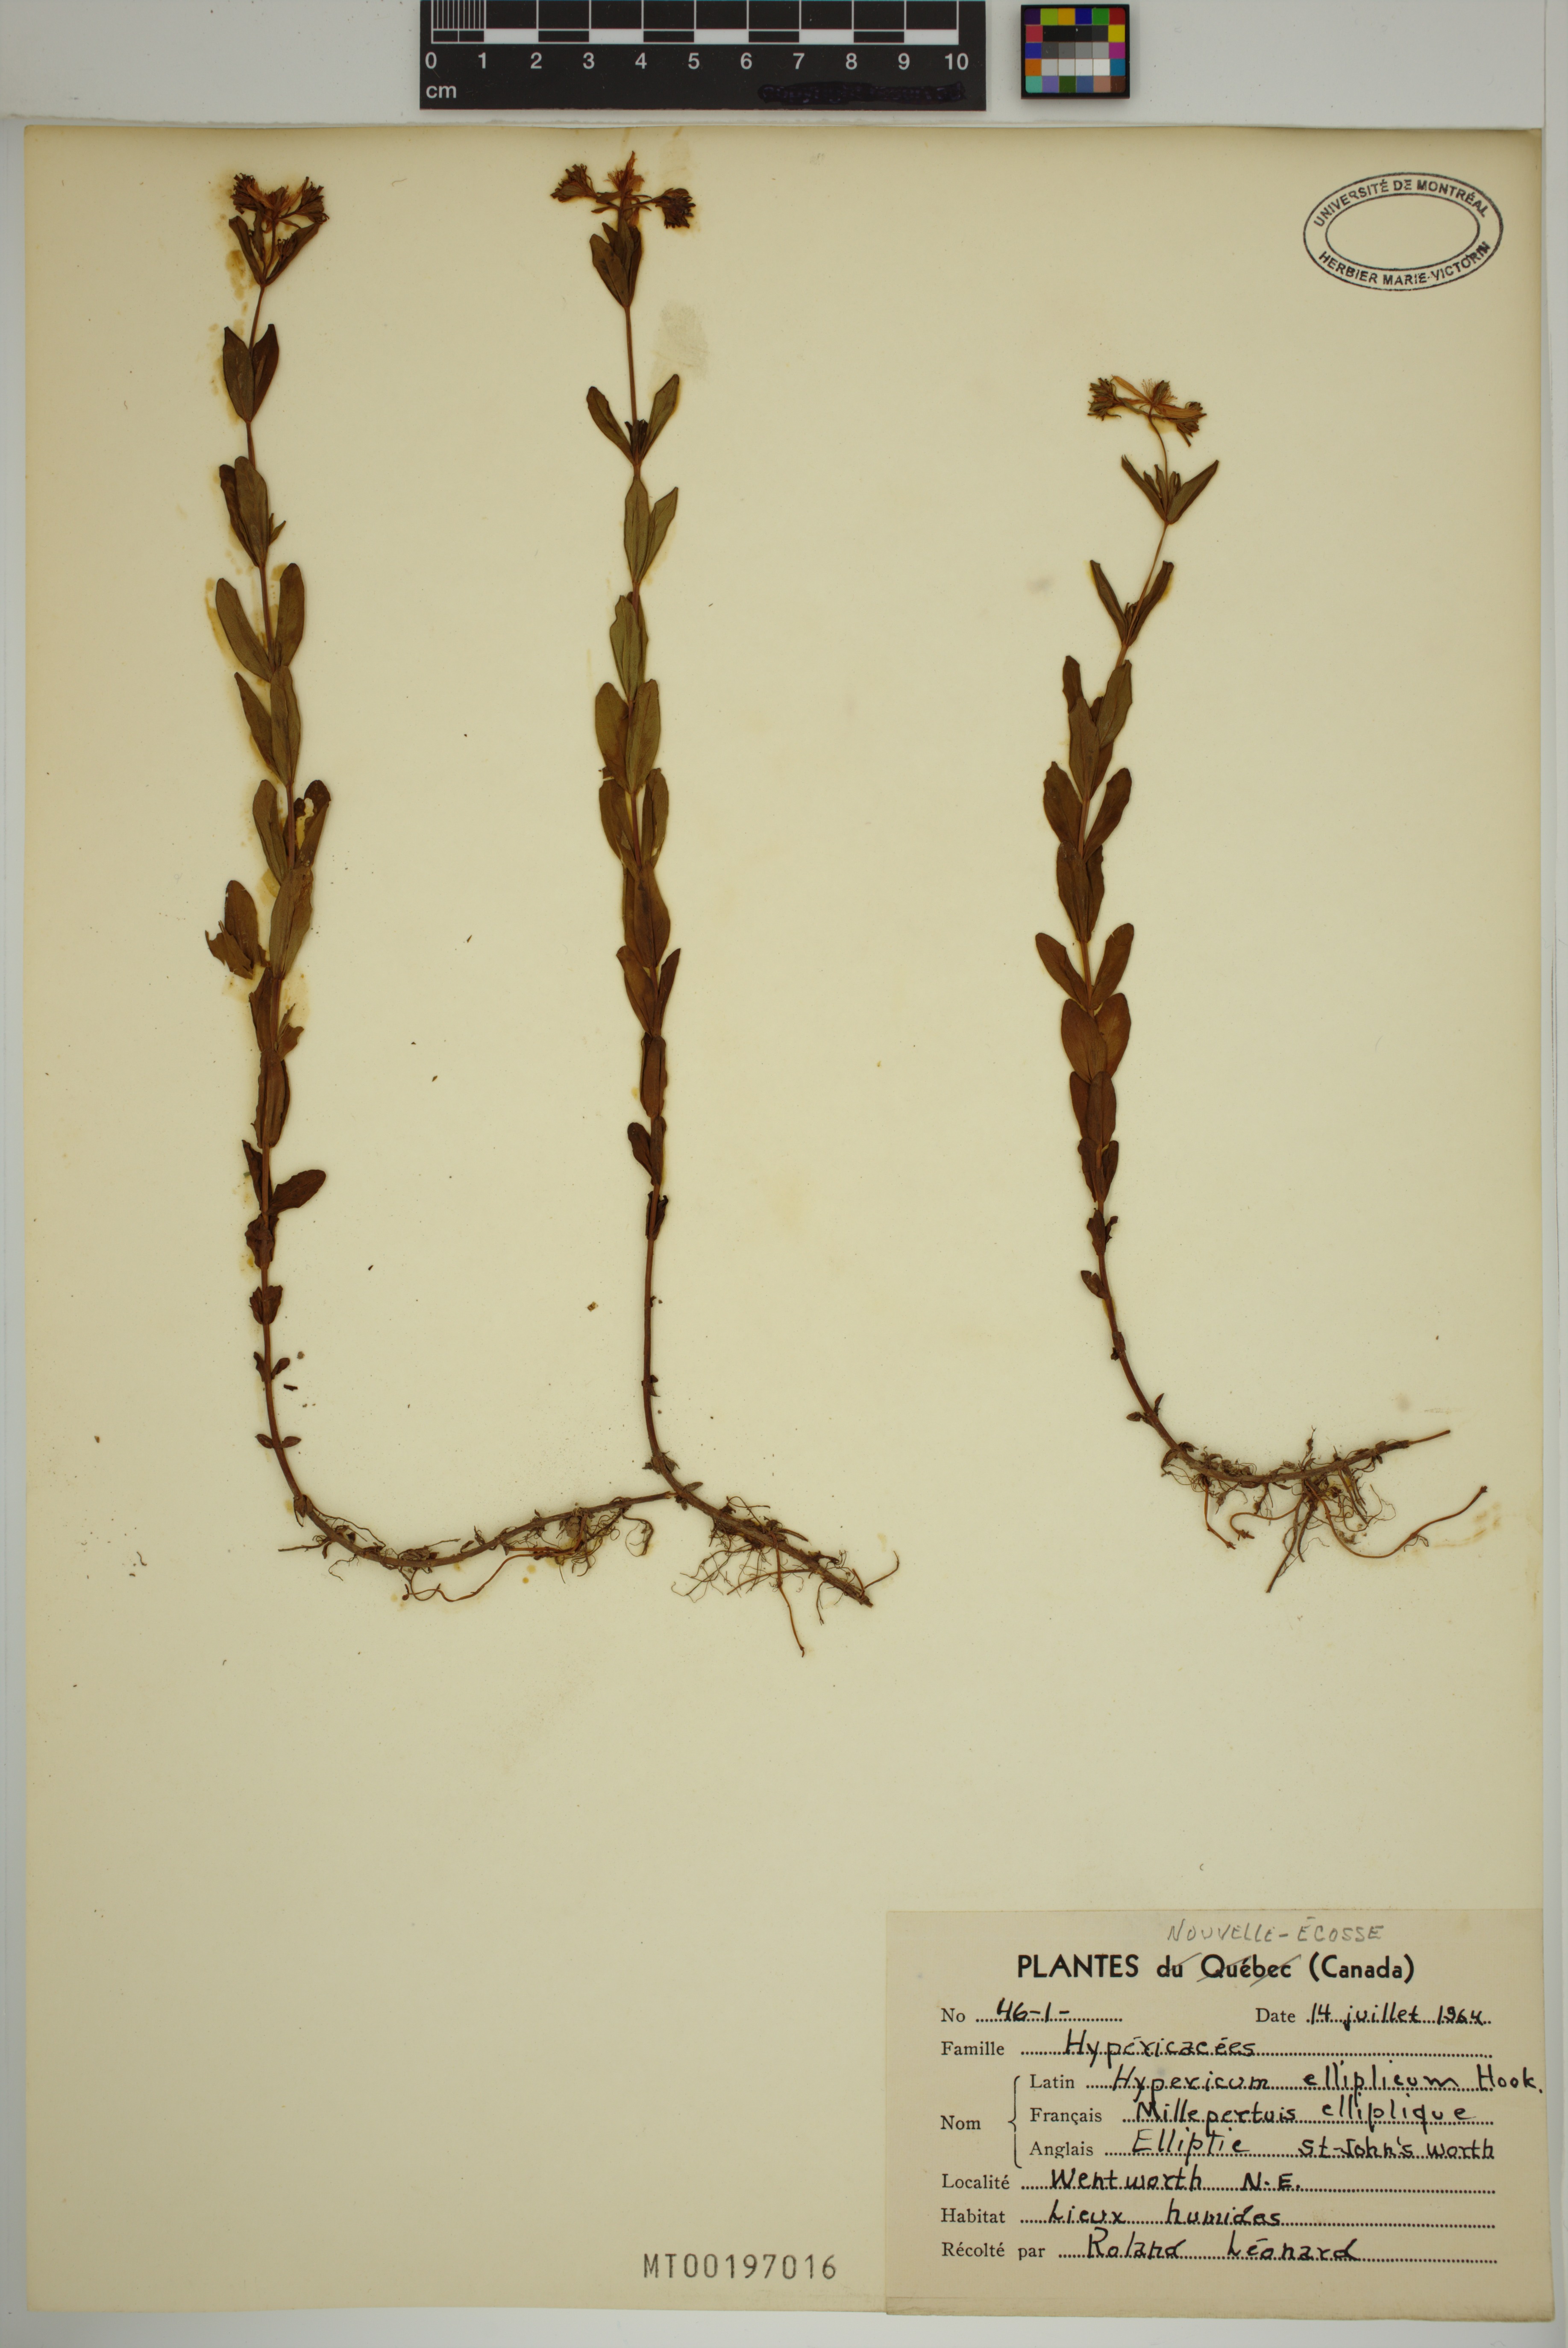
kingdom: Plantae
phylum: Tracheophyta
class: Magnoliopsida
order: Malpighiales
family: Hypericaceae
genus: Hypericum
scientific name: Hypericum ellipticum
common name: Elliptic st. john's-wort
